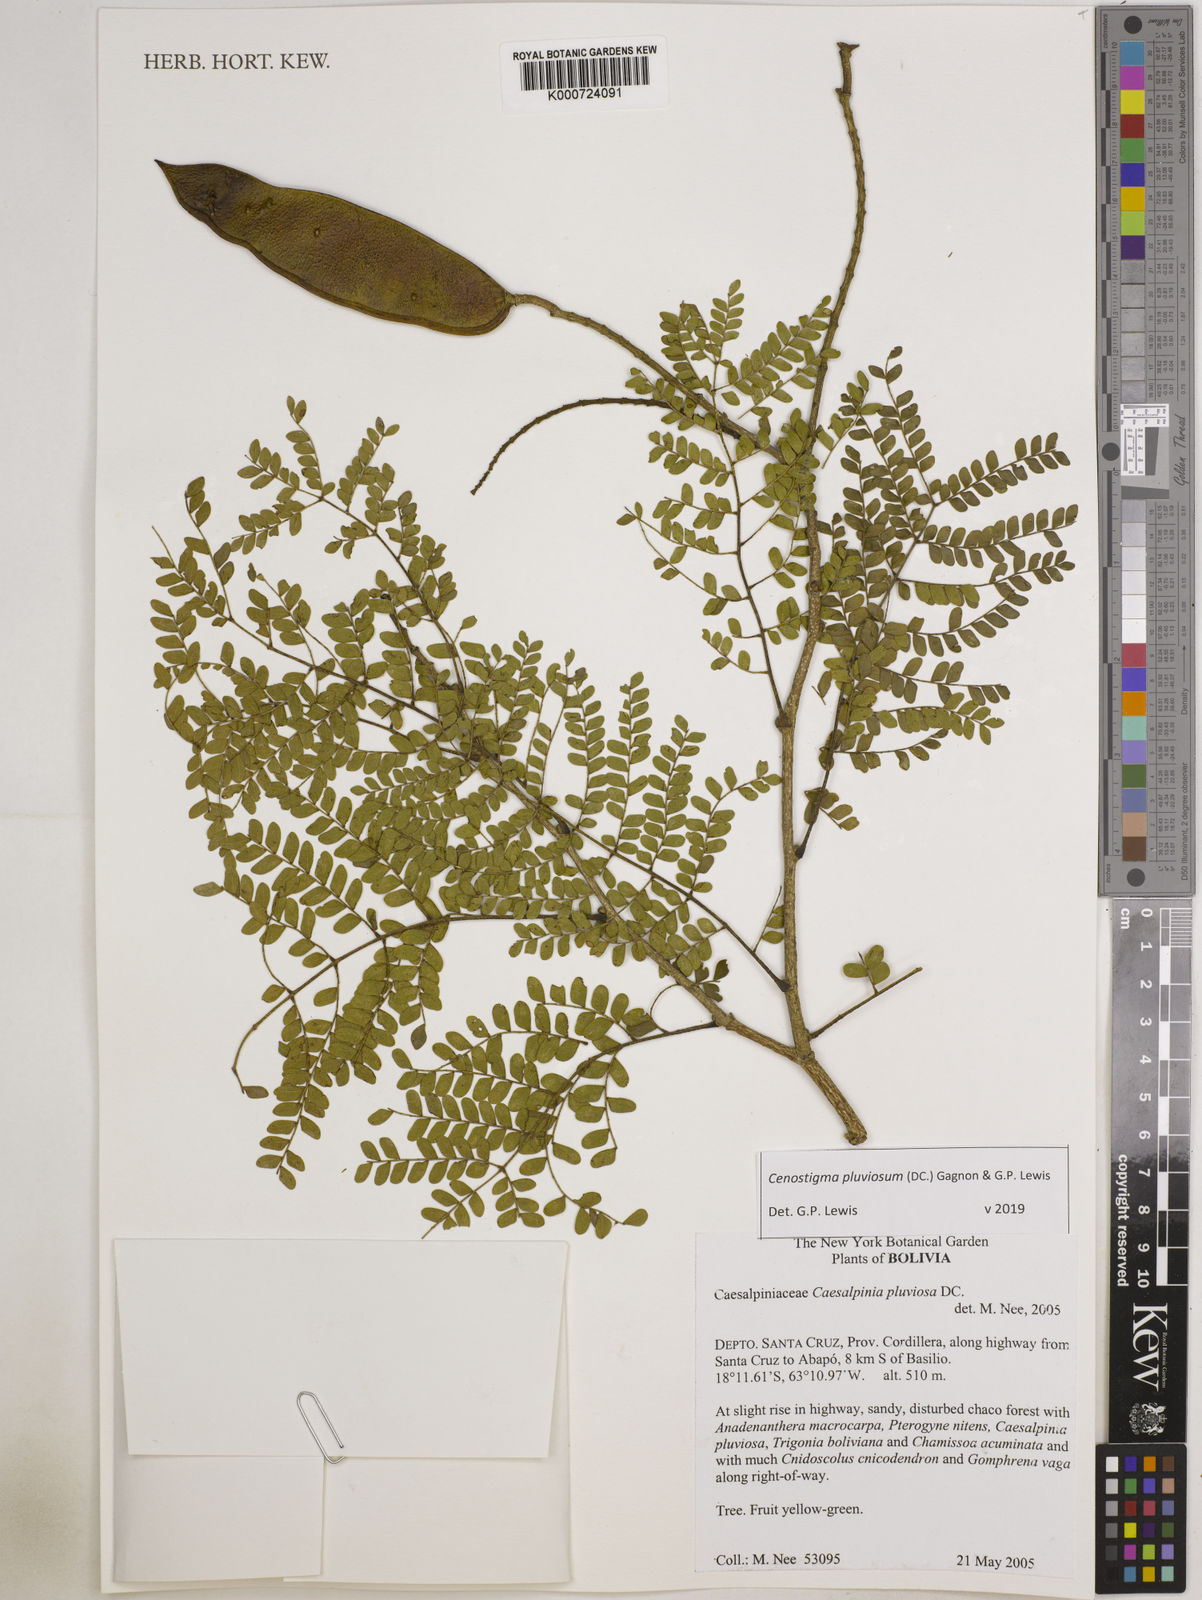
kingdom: Plantae
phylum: Tracheophyta
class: Magnoliopsida
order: Fabales
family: Fabaceae
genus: Cenostigma
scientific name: Cenostigma pluviosum
